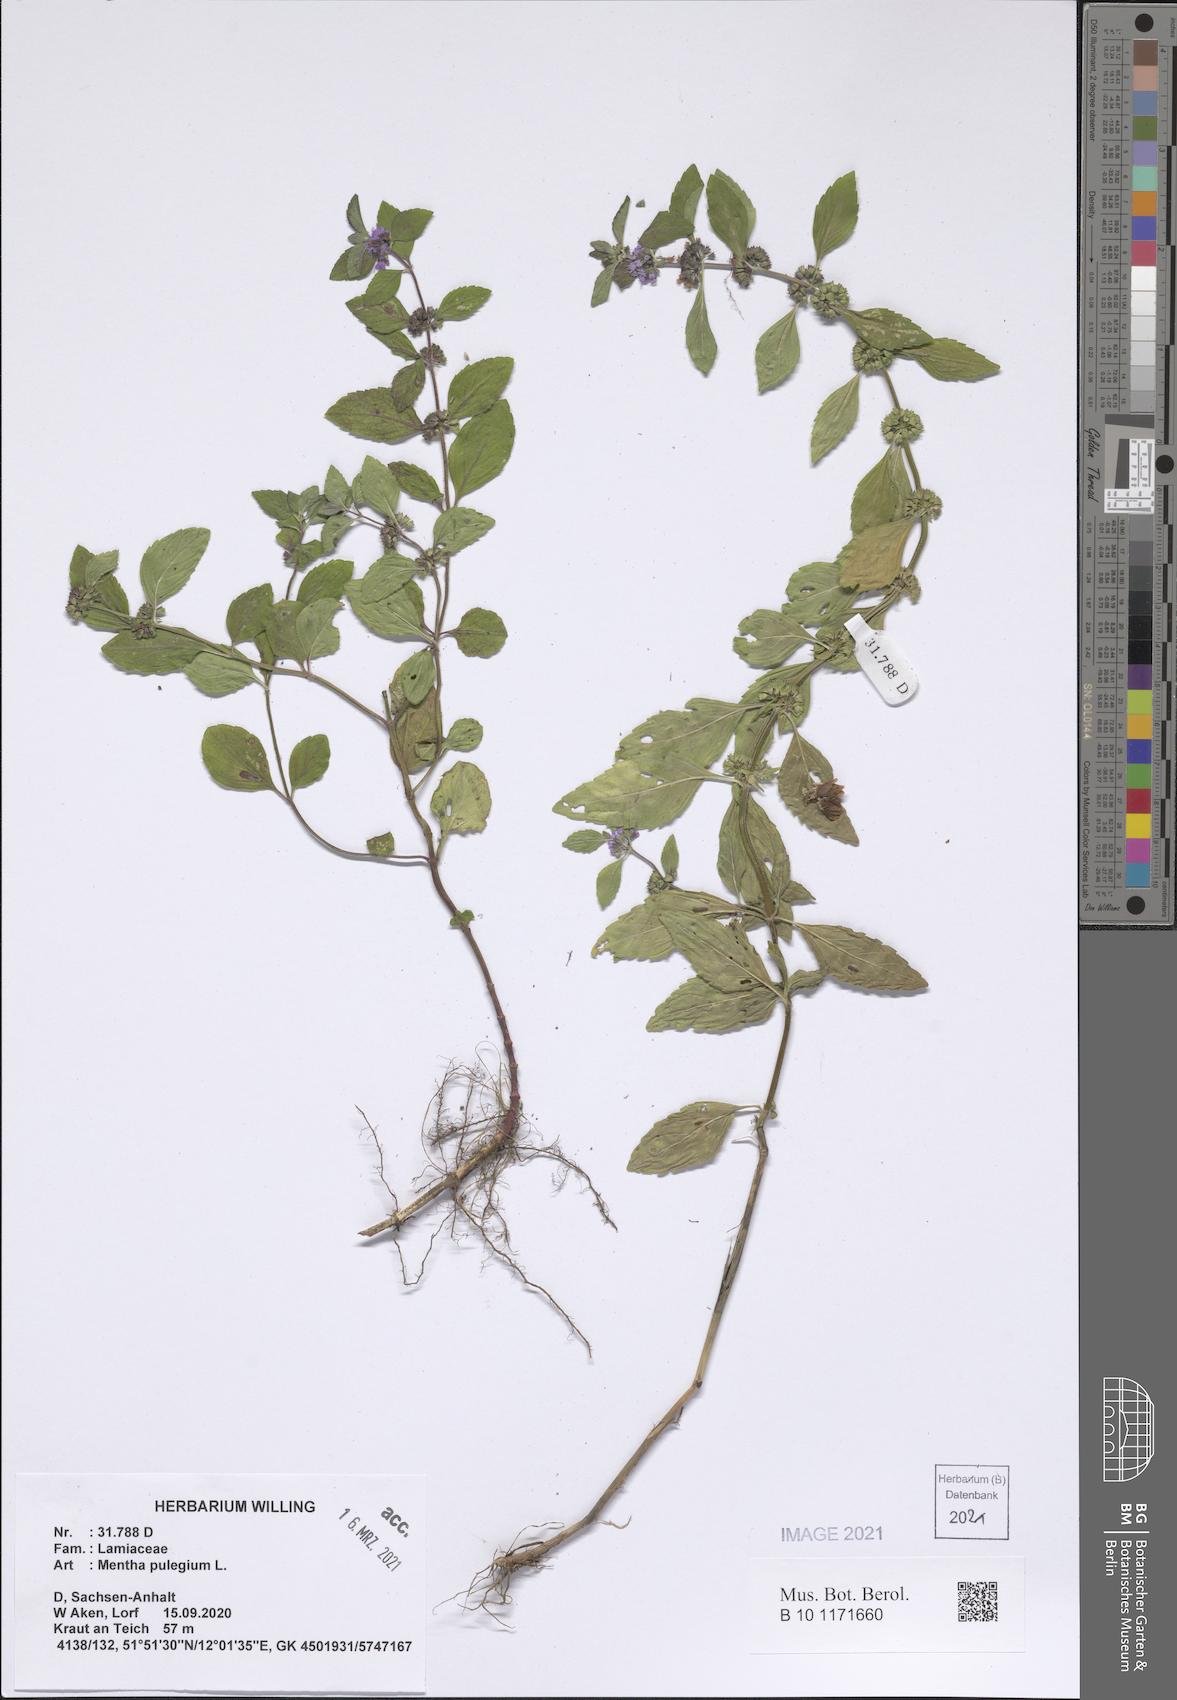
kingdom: Plantae
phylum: Tracheophyta
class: Magnoliopsida
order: Lamiales
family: Lamiaceae
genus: Mentha
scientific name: Mentha pulegium
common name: Pennyroyal
